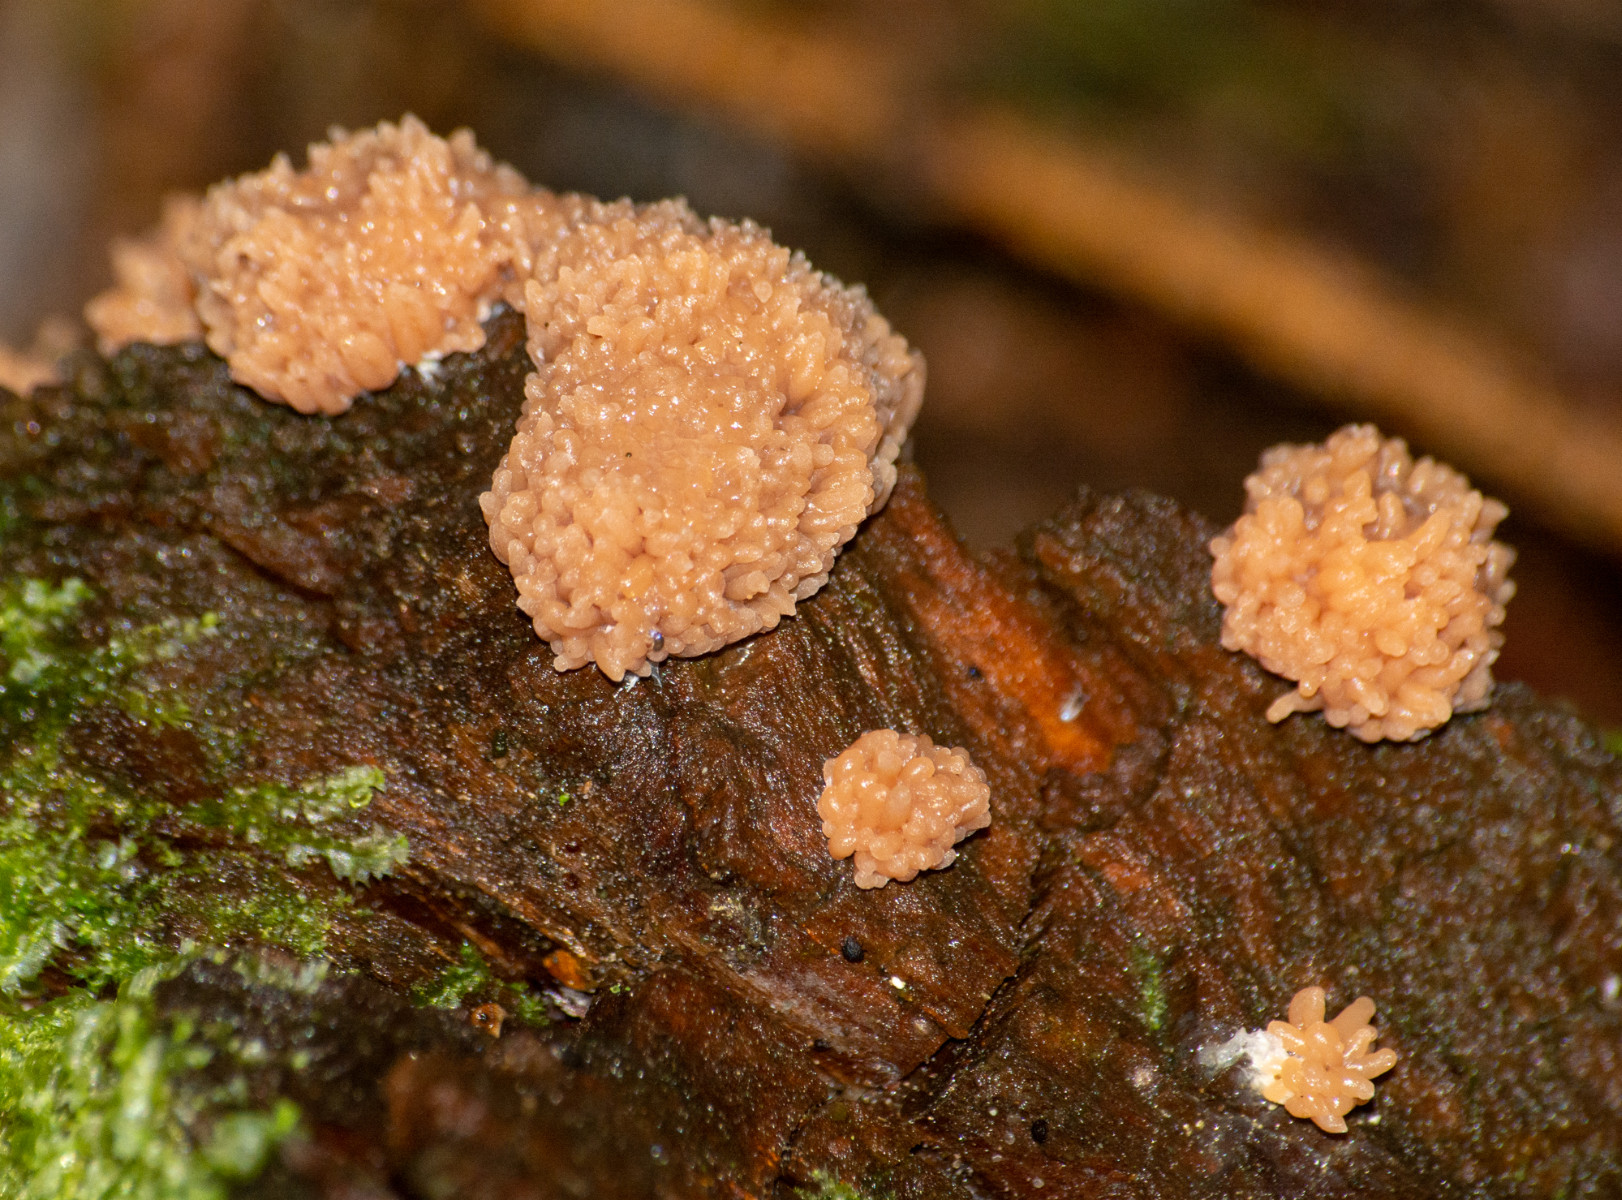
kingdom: Protozoa
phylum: Mycetozoa
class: Myxomycetes
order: Cribrariales
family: Tubiferaceae
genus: Tubifera
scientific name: Tubifera ferruginosa
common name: kanel-støvrør
